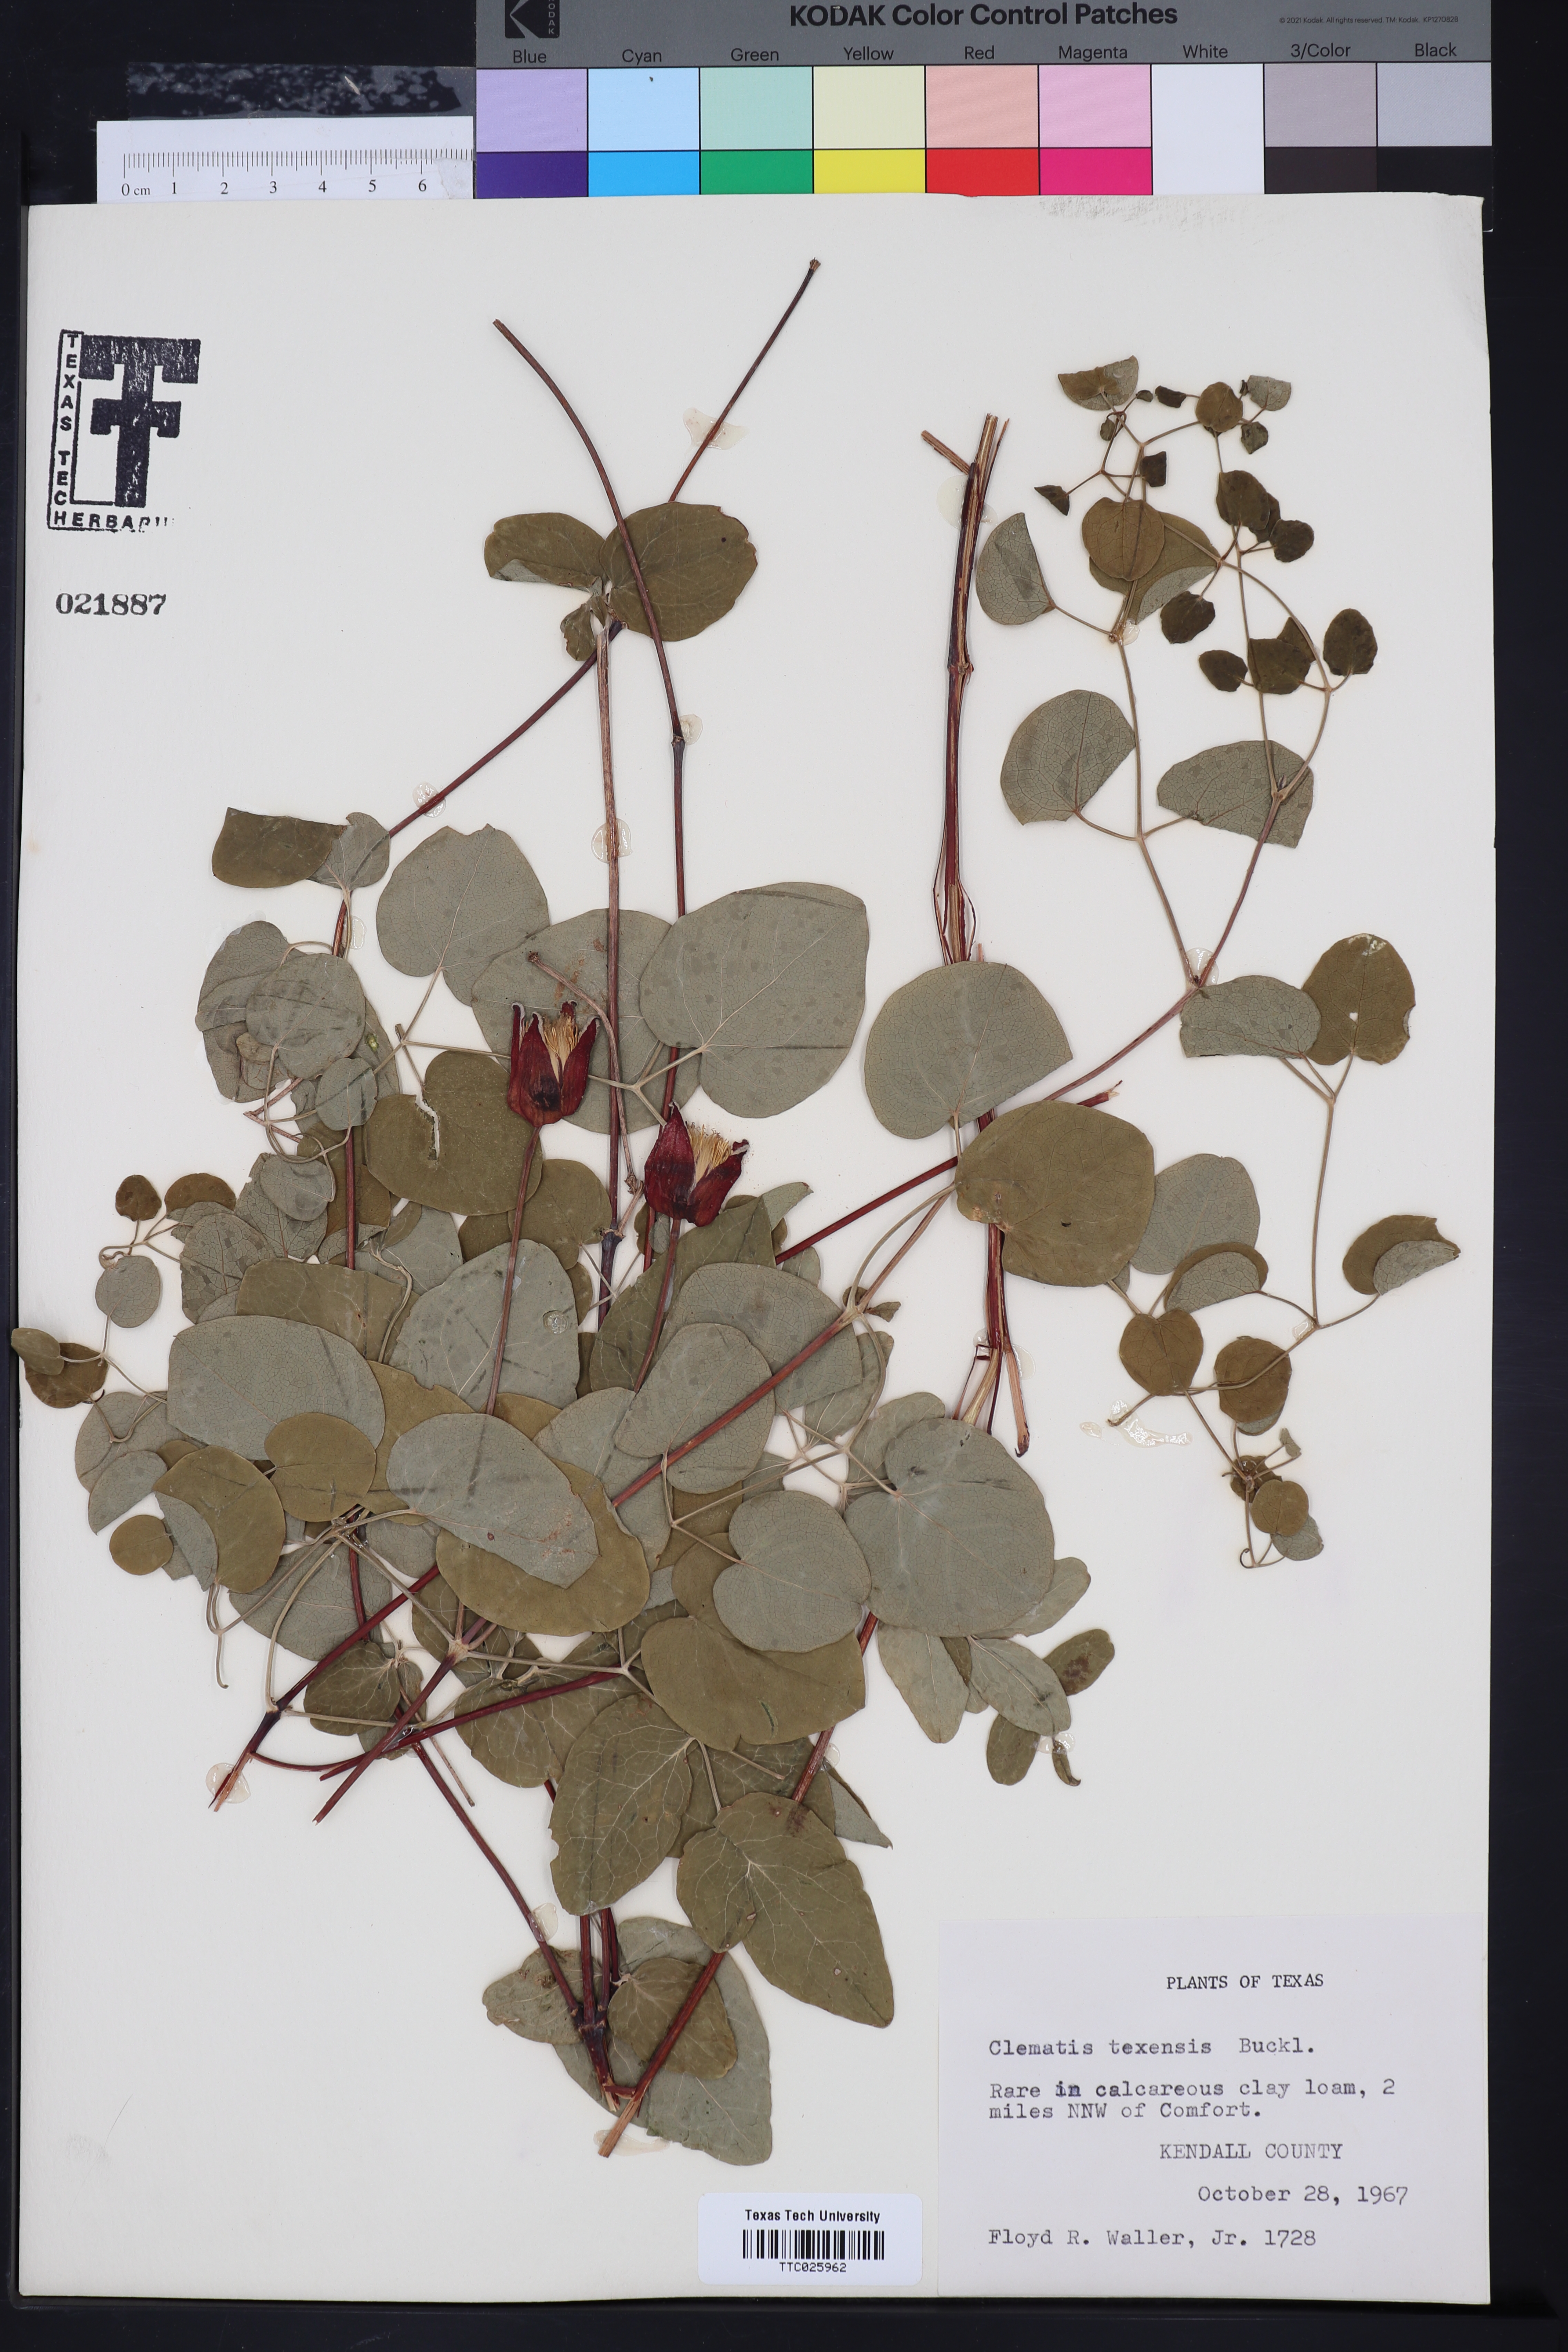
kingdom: Plantae
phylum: Tracheophyta
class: Magnoliopsida
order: Ranunculales
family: Ranunculaceae
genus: Clematis
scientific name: Clematis texensis
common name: Crimson clematis
